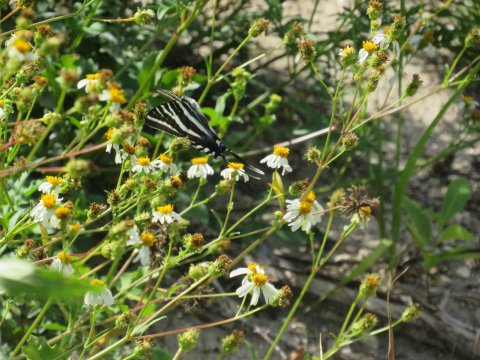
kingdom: Animalia
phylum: Arthropoda
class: Insecta
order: Lepidoptera
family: Papilionidae
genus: Protographium
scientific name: Protographium marcellus
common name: Zebra Swallowtail
